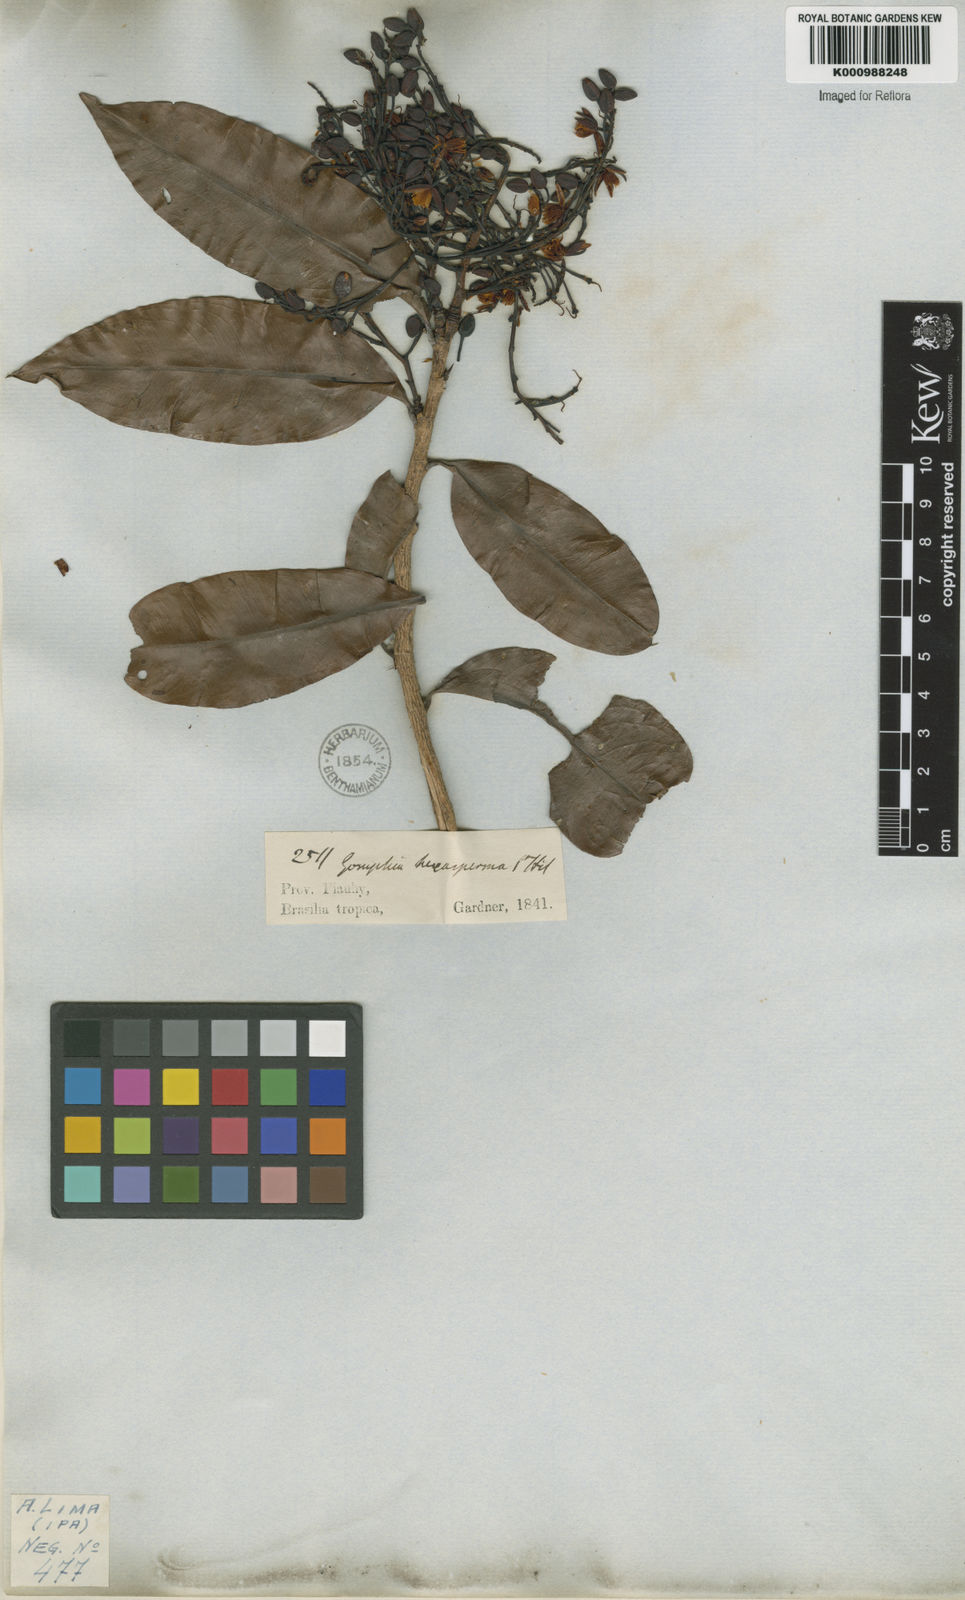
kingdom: Plantae
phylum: Tracheophyta
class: Magnoliopsida
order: Malpighiales
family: Ochnaceae
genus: Ouratea
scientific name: Ouratea hexasperma
